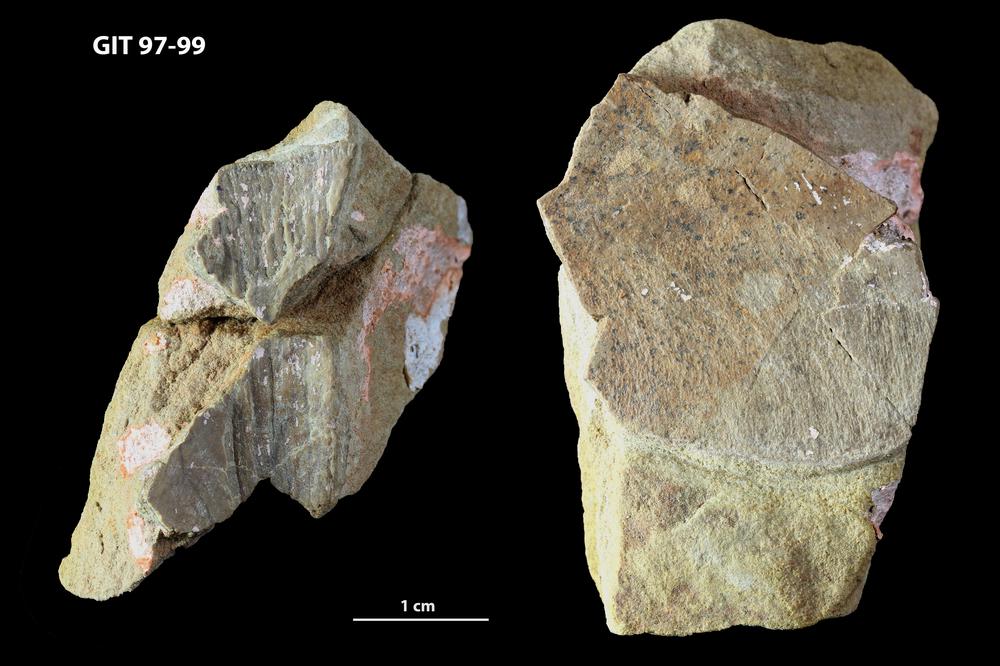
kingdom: Animalia
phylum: Chordata
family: Holonematidae
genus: Holonema
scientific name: Holonema
